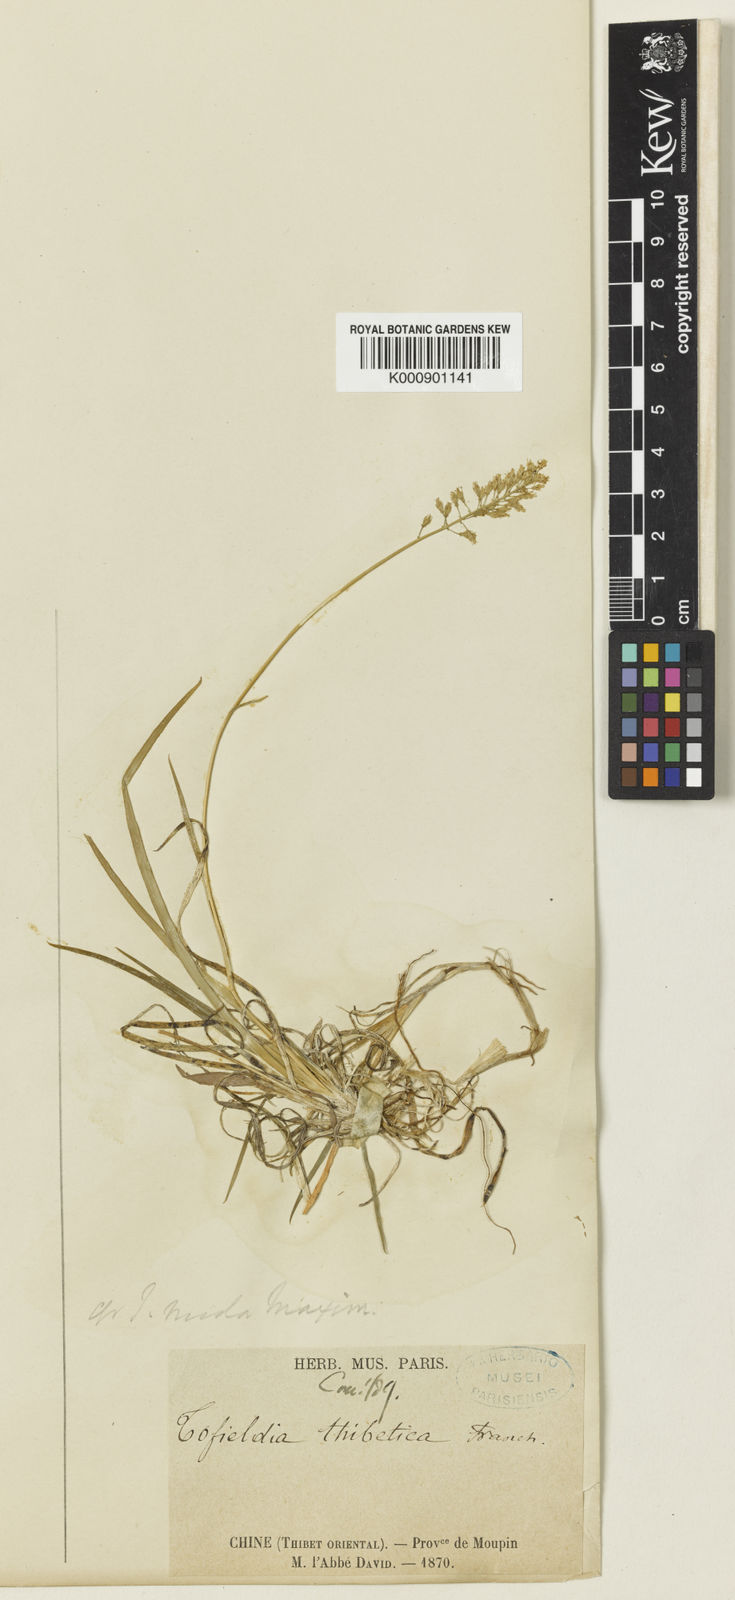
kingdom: Plantae
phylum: Tracheophyta
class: Liliopsida
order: Alismatales
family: Tofieldiaceae
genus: Tofieldia
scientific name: Tofieldia thibetica
